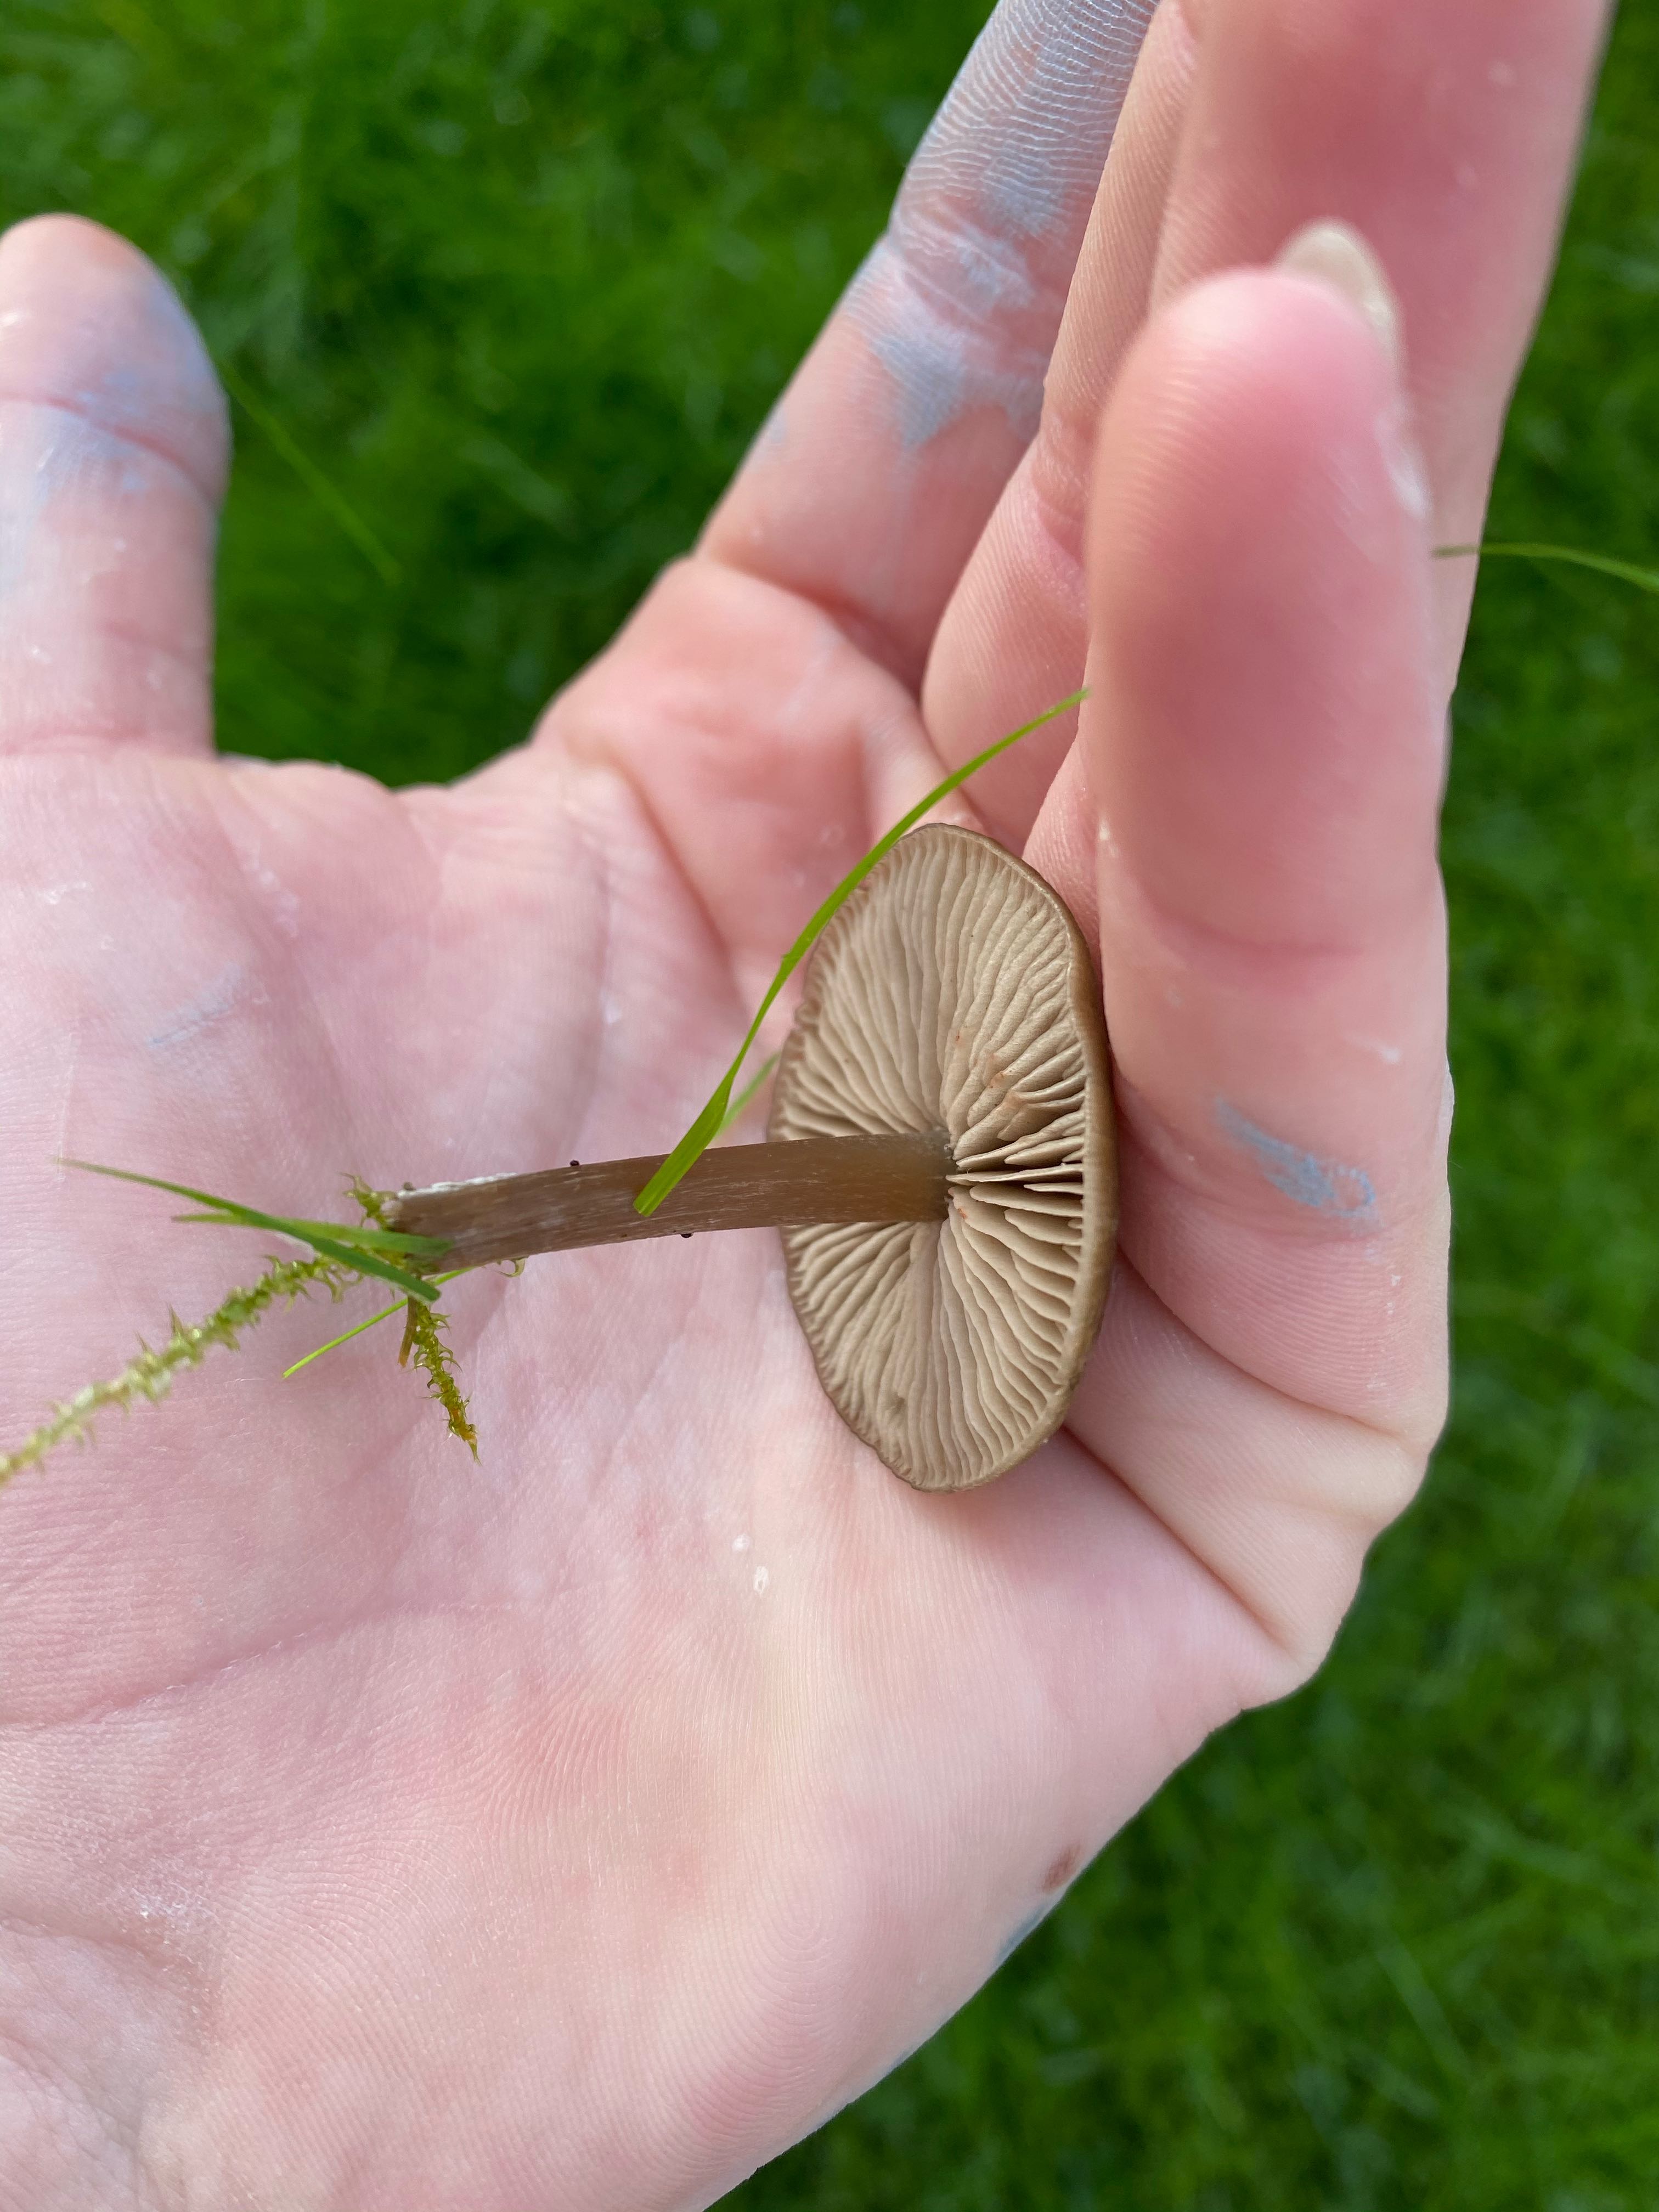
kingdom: Fungi
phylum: Basidiomycota
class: Agaricomycetes
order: Agaricales
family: Entolomataceae
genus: Entoloma
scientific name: Entoloma
